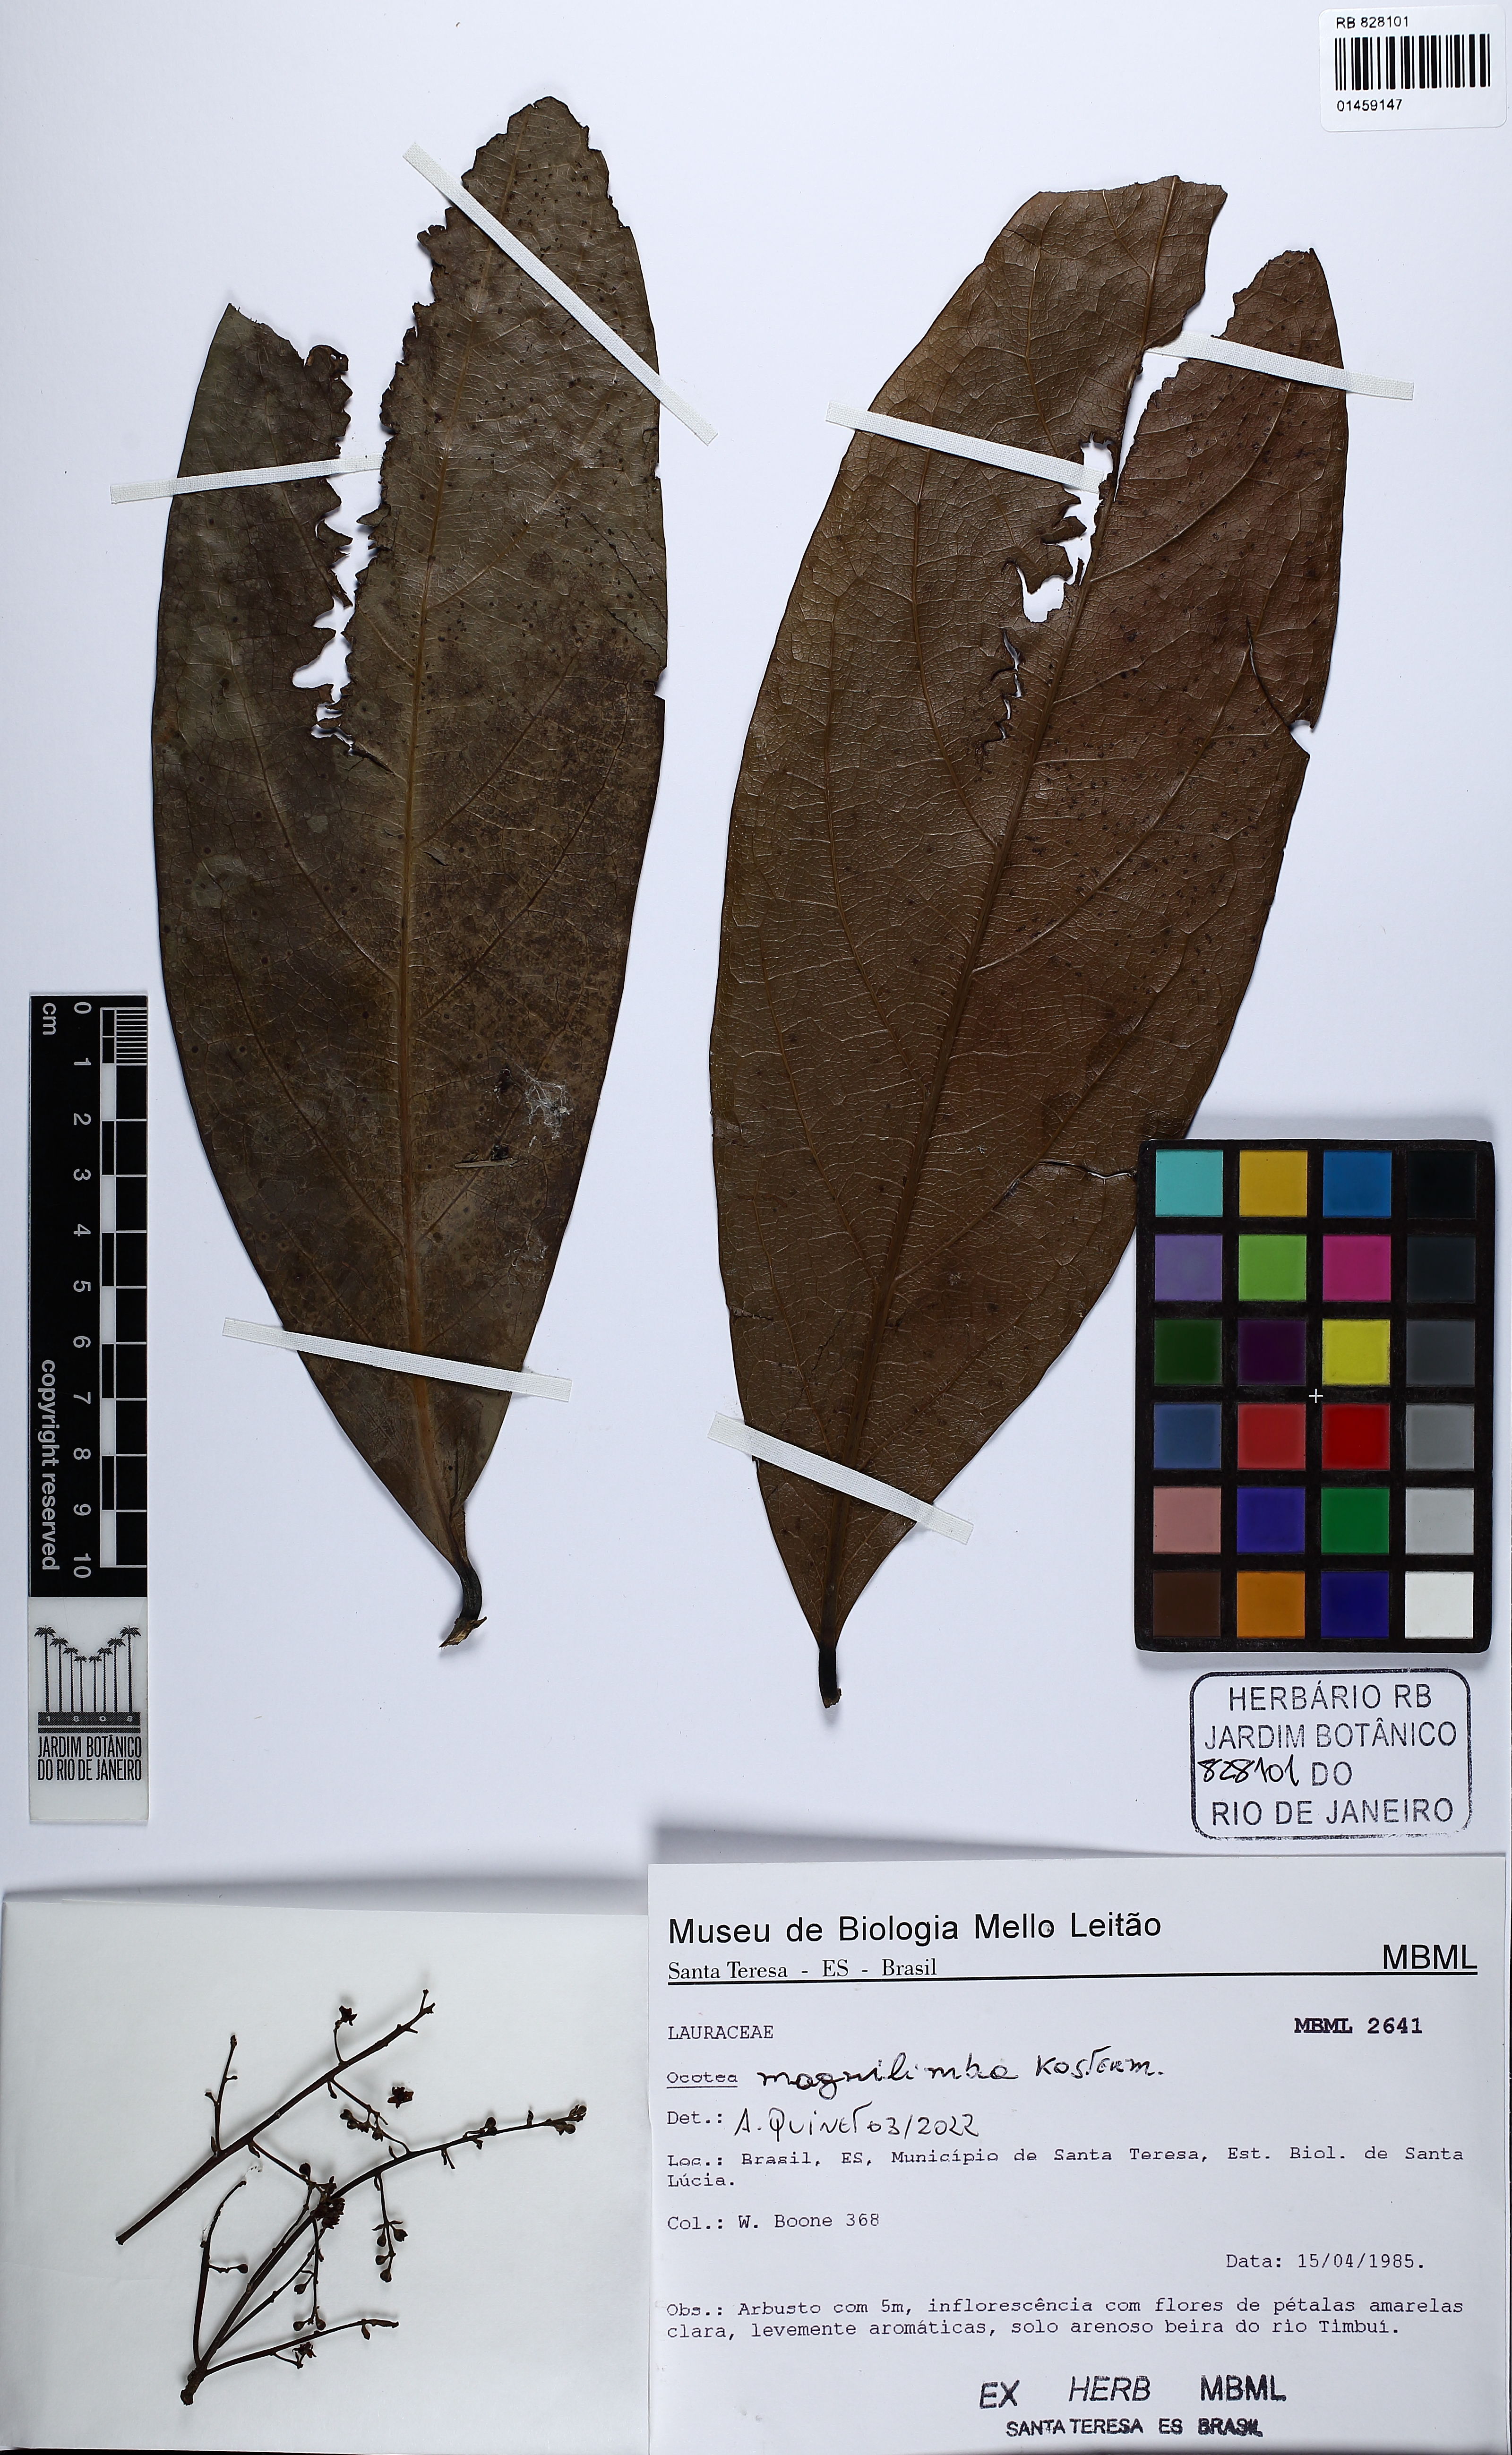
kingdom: Plantae
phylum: Tracheophyta
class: Magnoliopsida
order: Laurales
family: Lauraceae
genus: Ocotea
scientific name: Ocotea magnilimba
